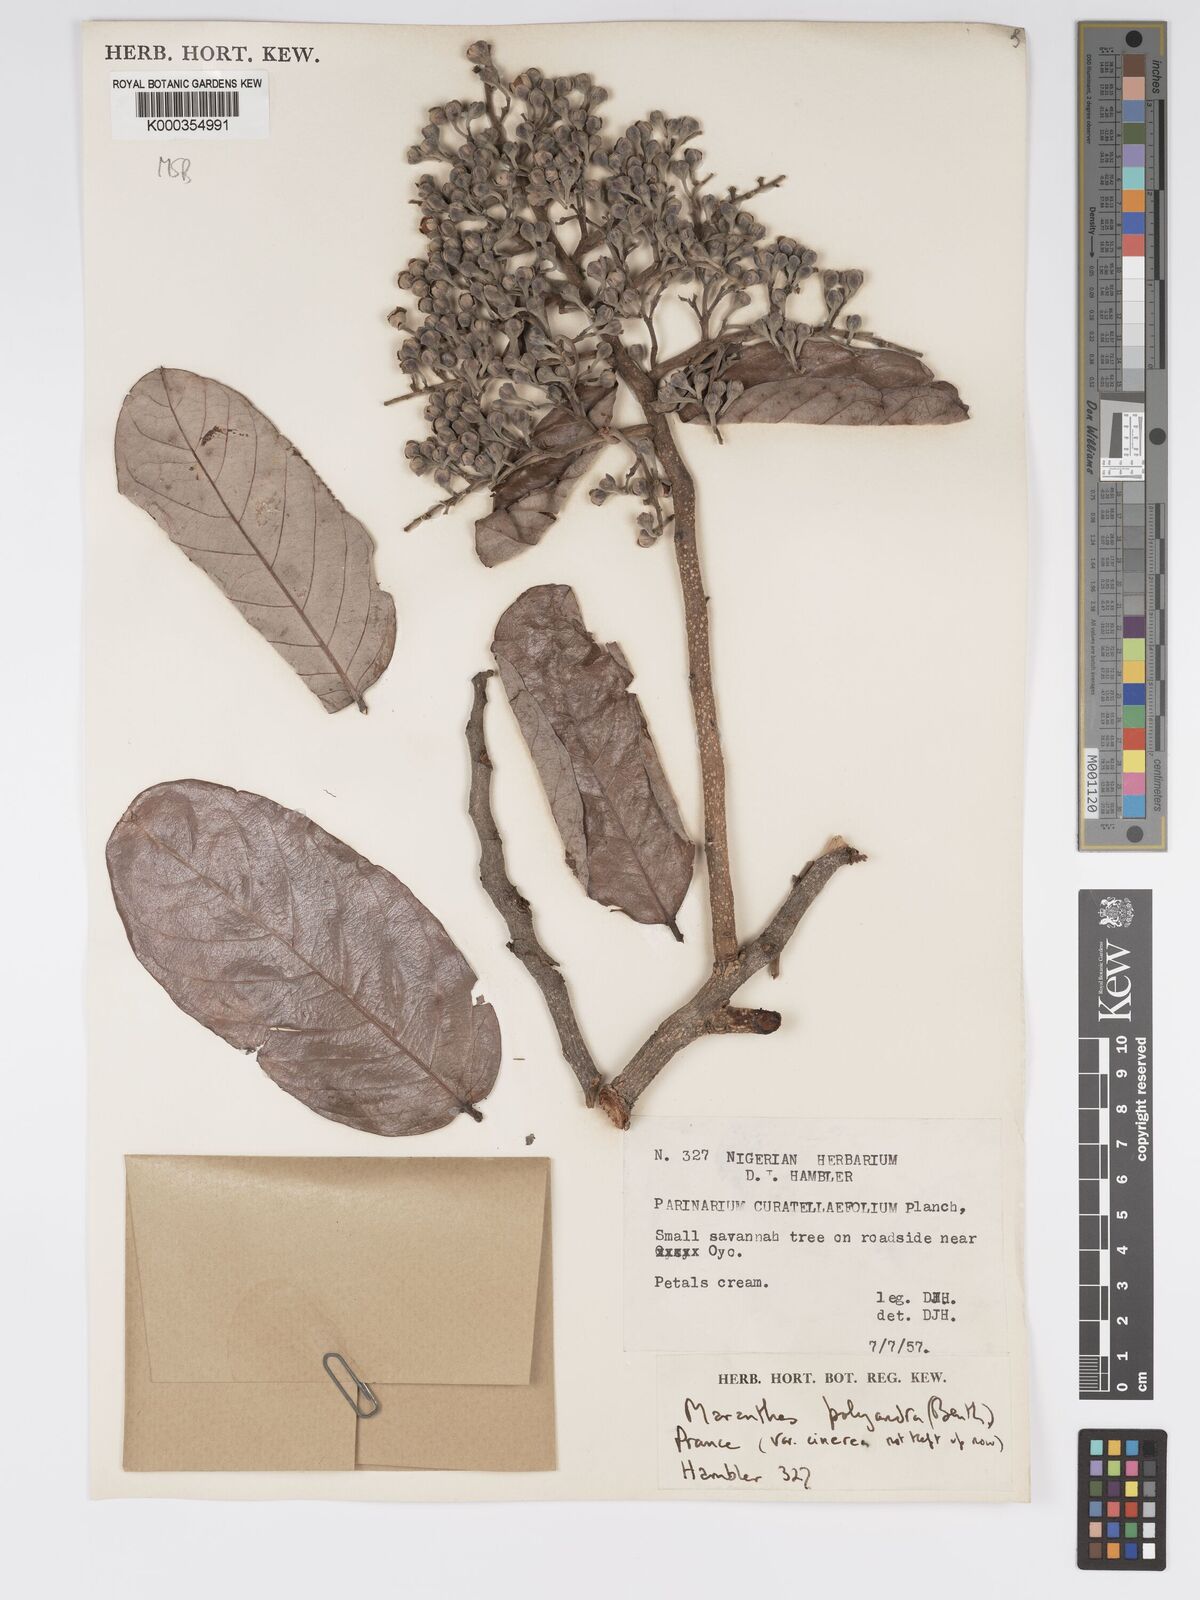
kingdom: Plantae
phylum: Tracheophyta
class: Magnoliopsida
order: Malpighiales
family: Chrysobalanaceae
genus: Maranthes
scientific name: Maranthes polyandra
